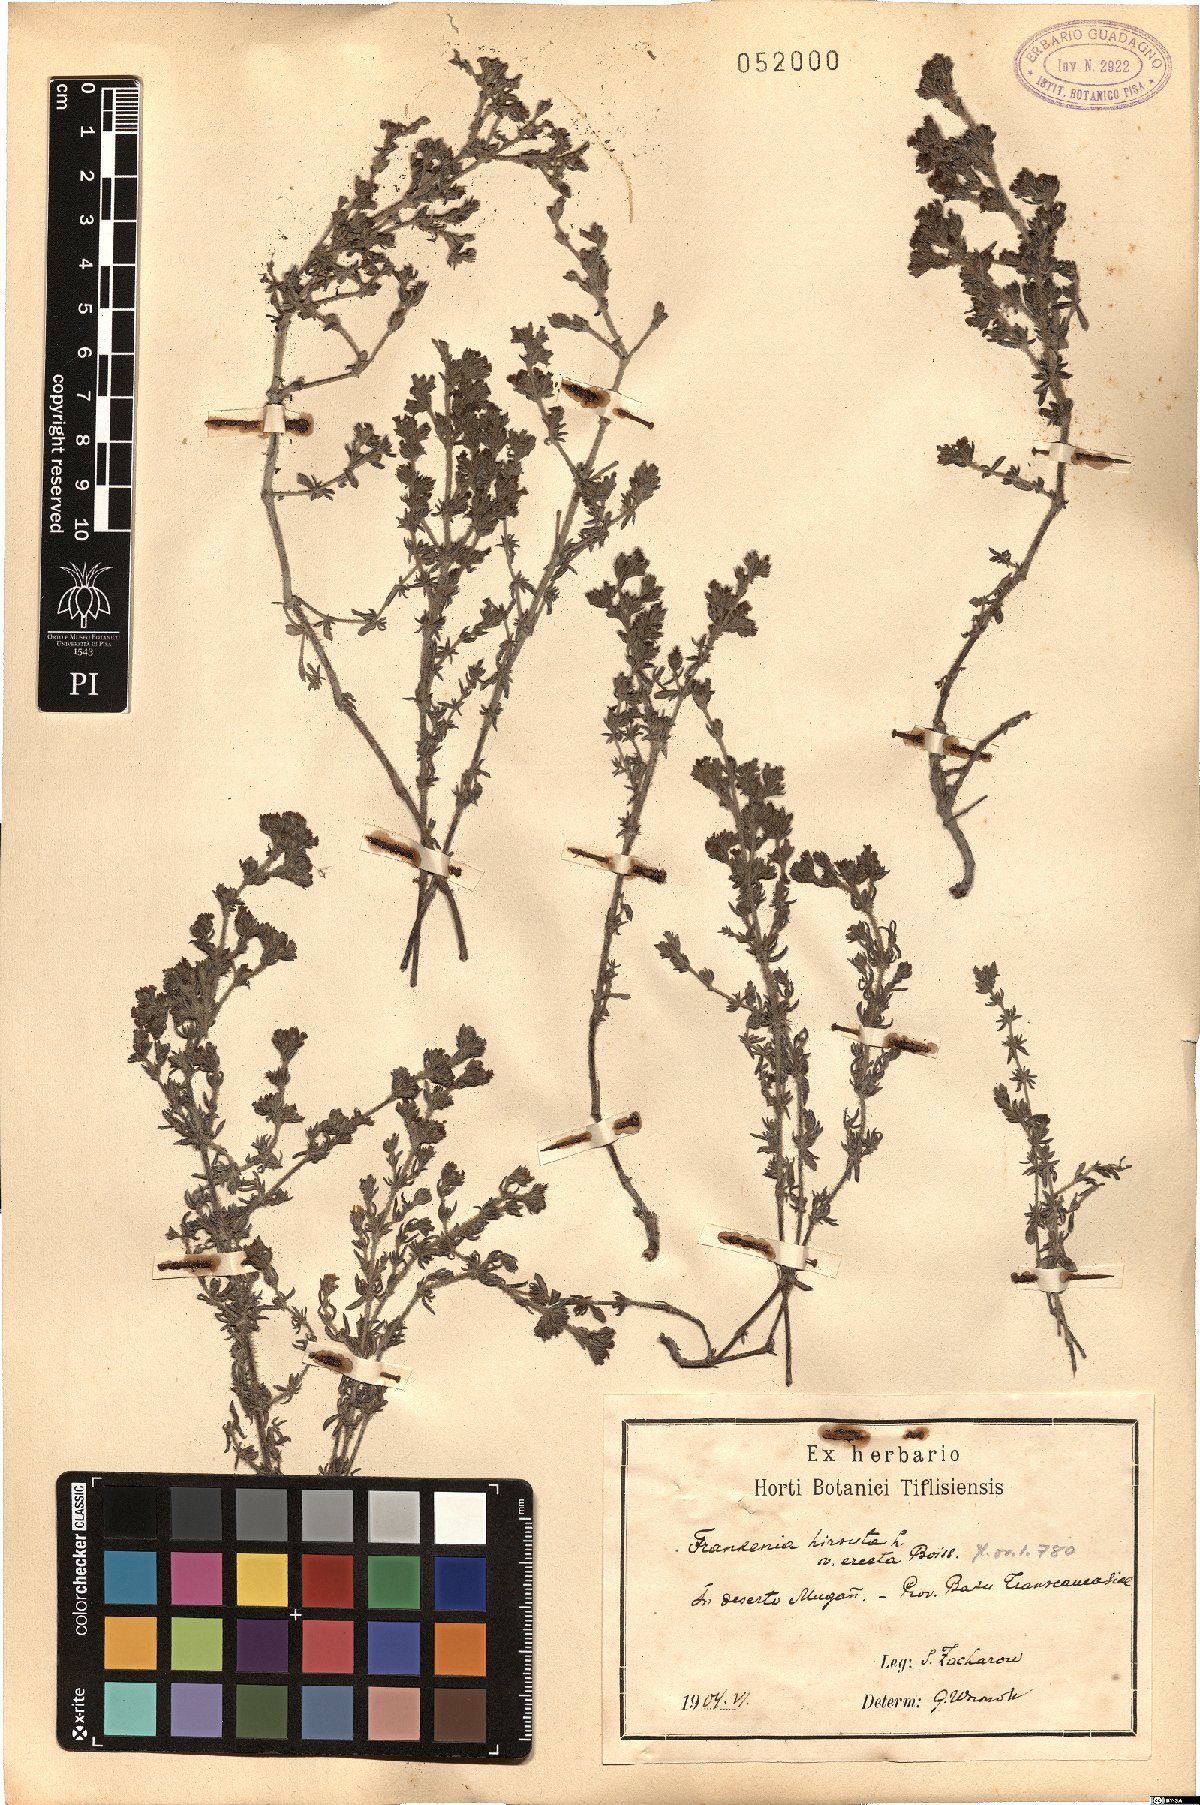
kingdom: Plantae
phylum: Tracheophyta
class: Magnoliopsida
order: Caryophyllales
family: Frankeniaceae
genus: Frankenia
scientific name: Frankenia hirsuta
